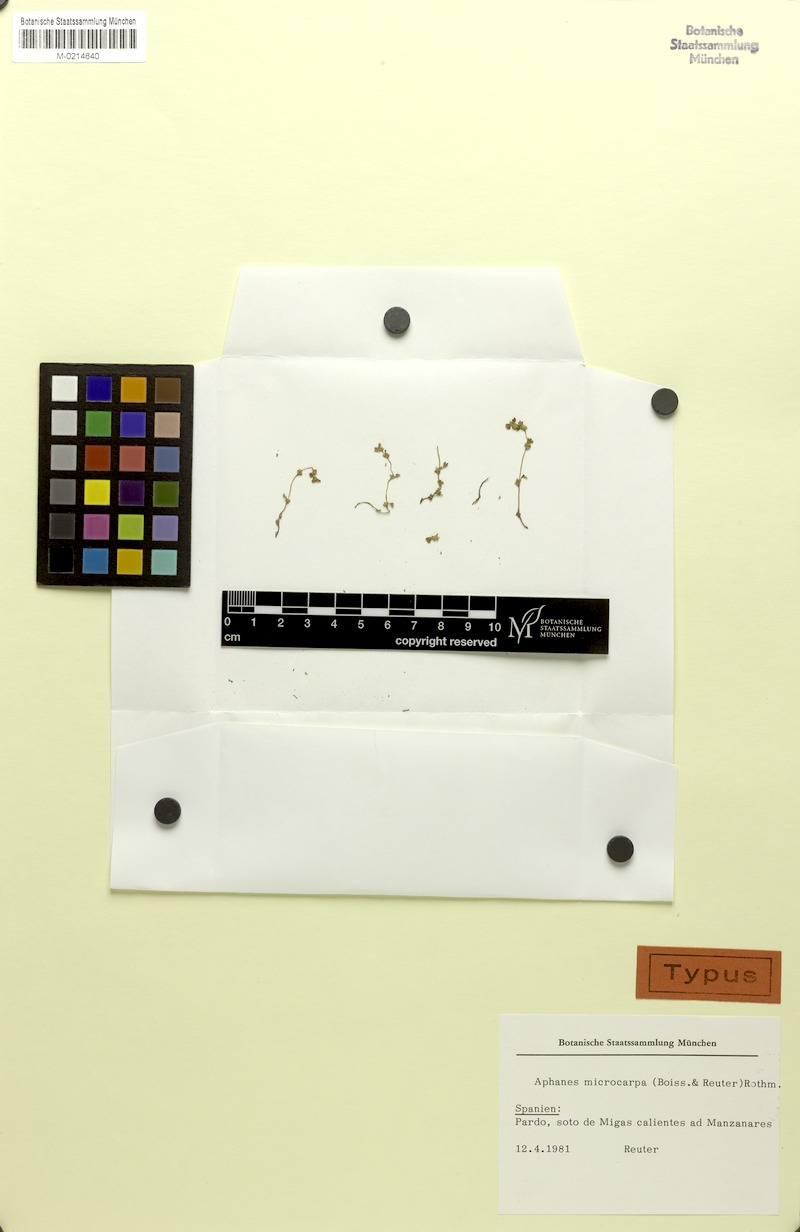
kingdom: Plantae
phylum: Tracheophyta
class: Magnoliopsida
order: Rosales
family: Rosaceae
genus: Aphanes
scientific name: Aphanes microcarpa
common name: Slender parsley piert
